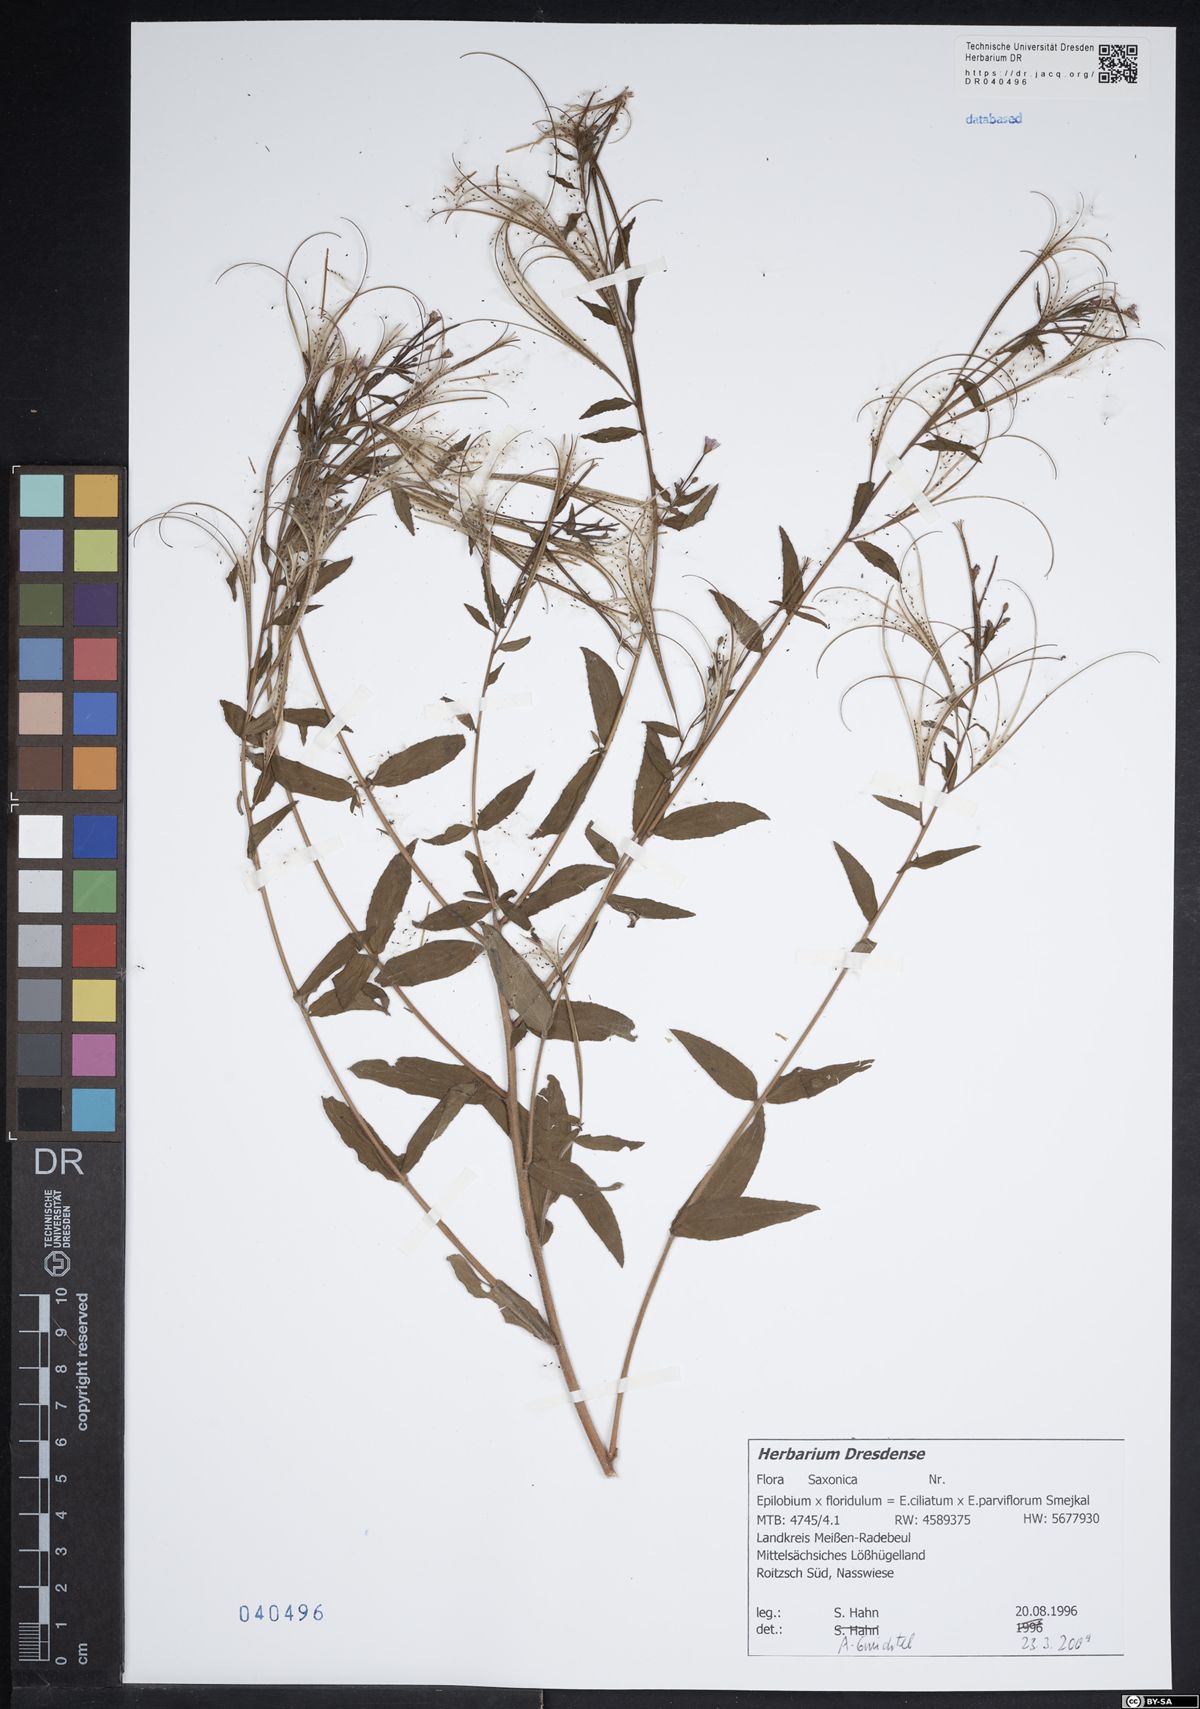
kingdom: Plantae
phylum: Tracheophyta
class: Magnoliopsida
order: Myrtales
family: Onagraceae
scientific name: Onagraceae
